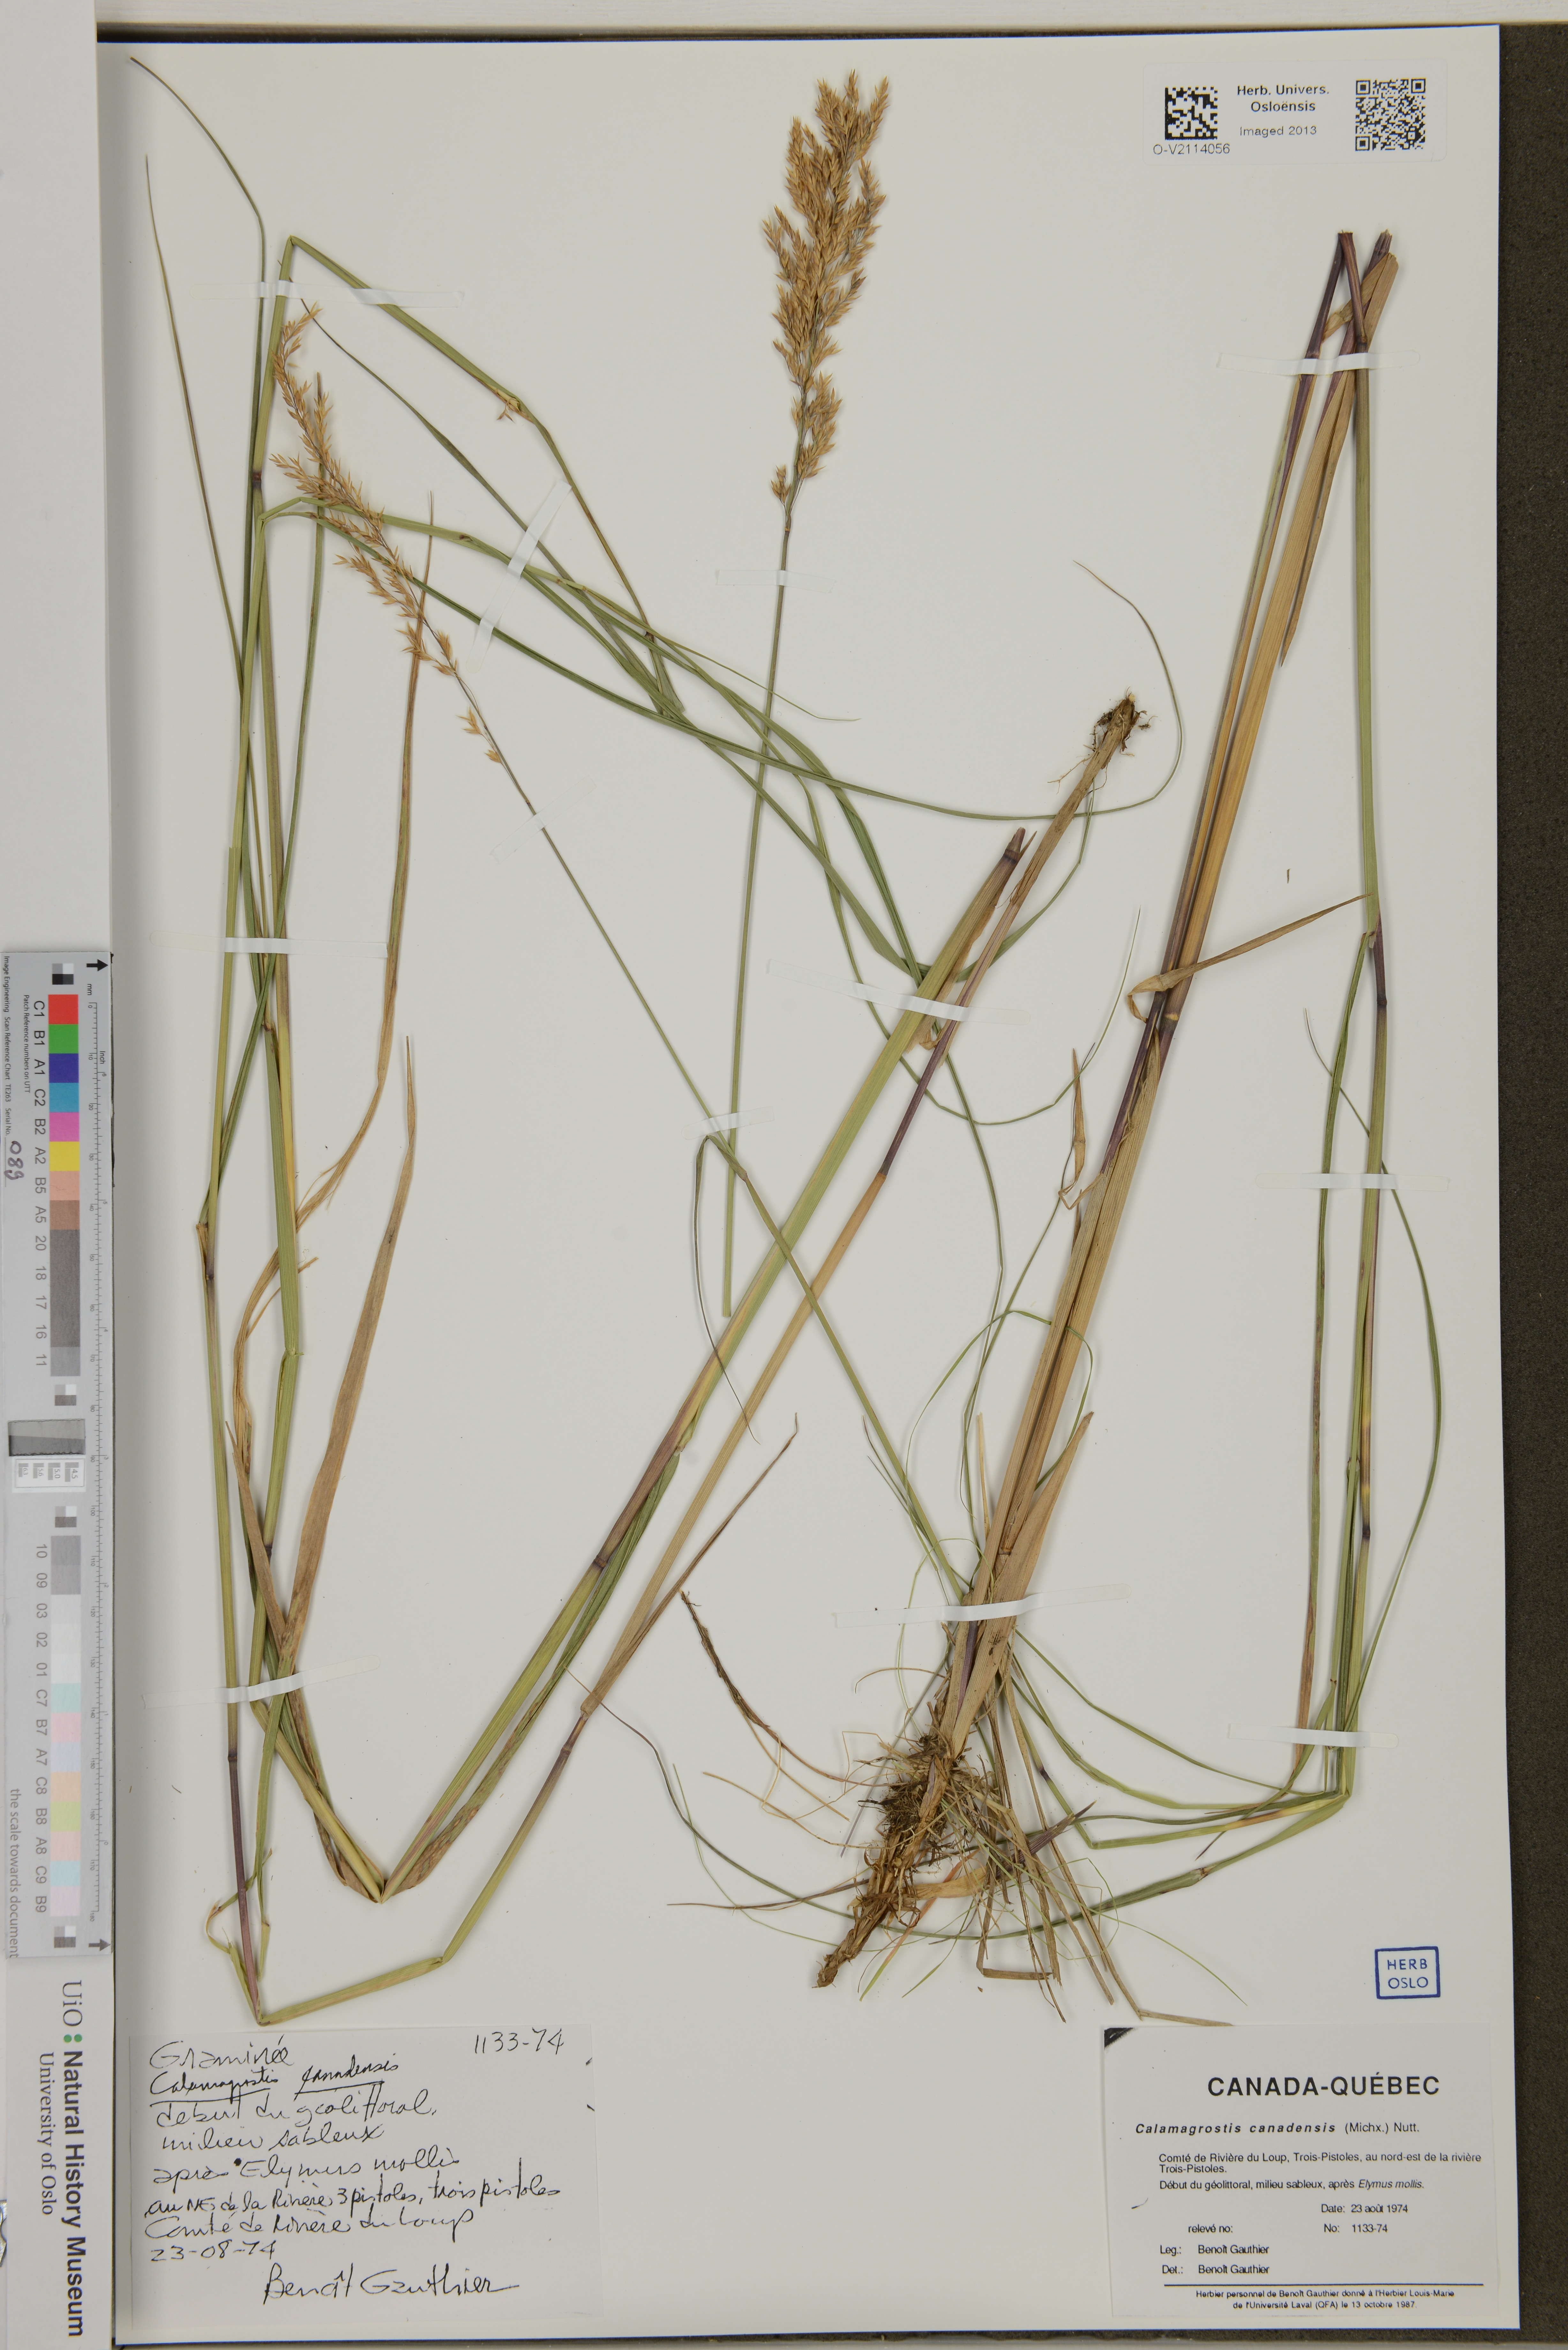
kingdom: Plantae
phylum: Tracheophyta
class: Liliopsida
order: Poales
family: Poaceae
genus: Calamagrostis
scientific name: Calamagrostis canadensis
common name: Canada bluejoint
